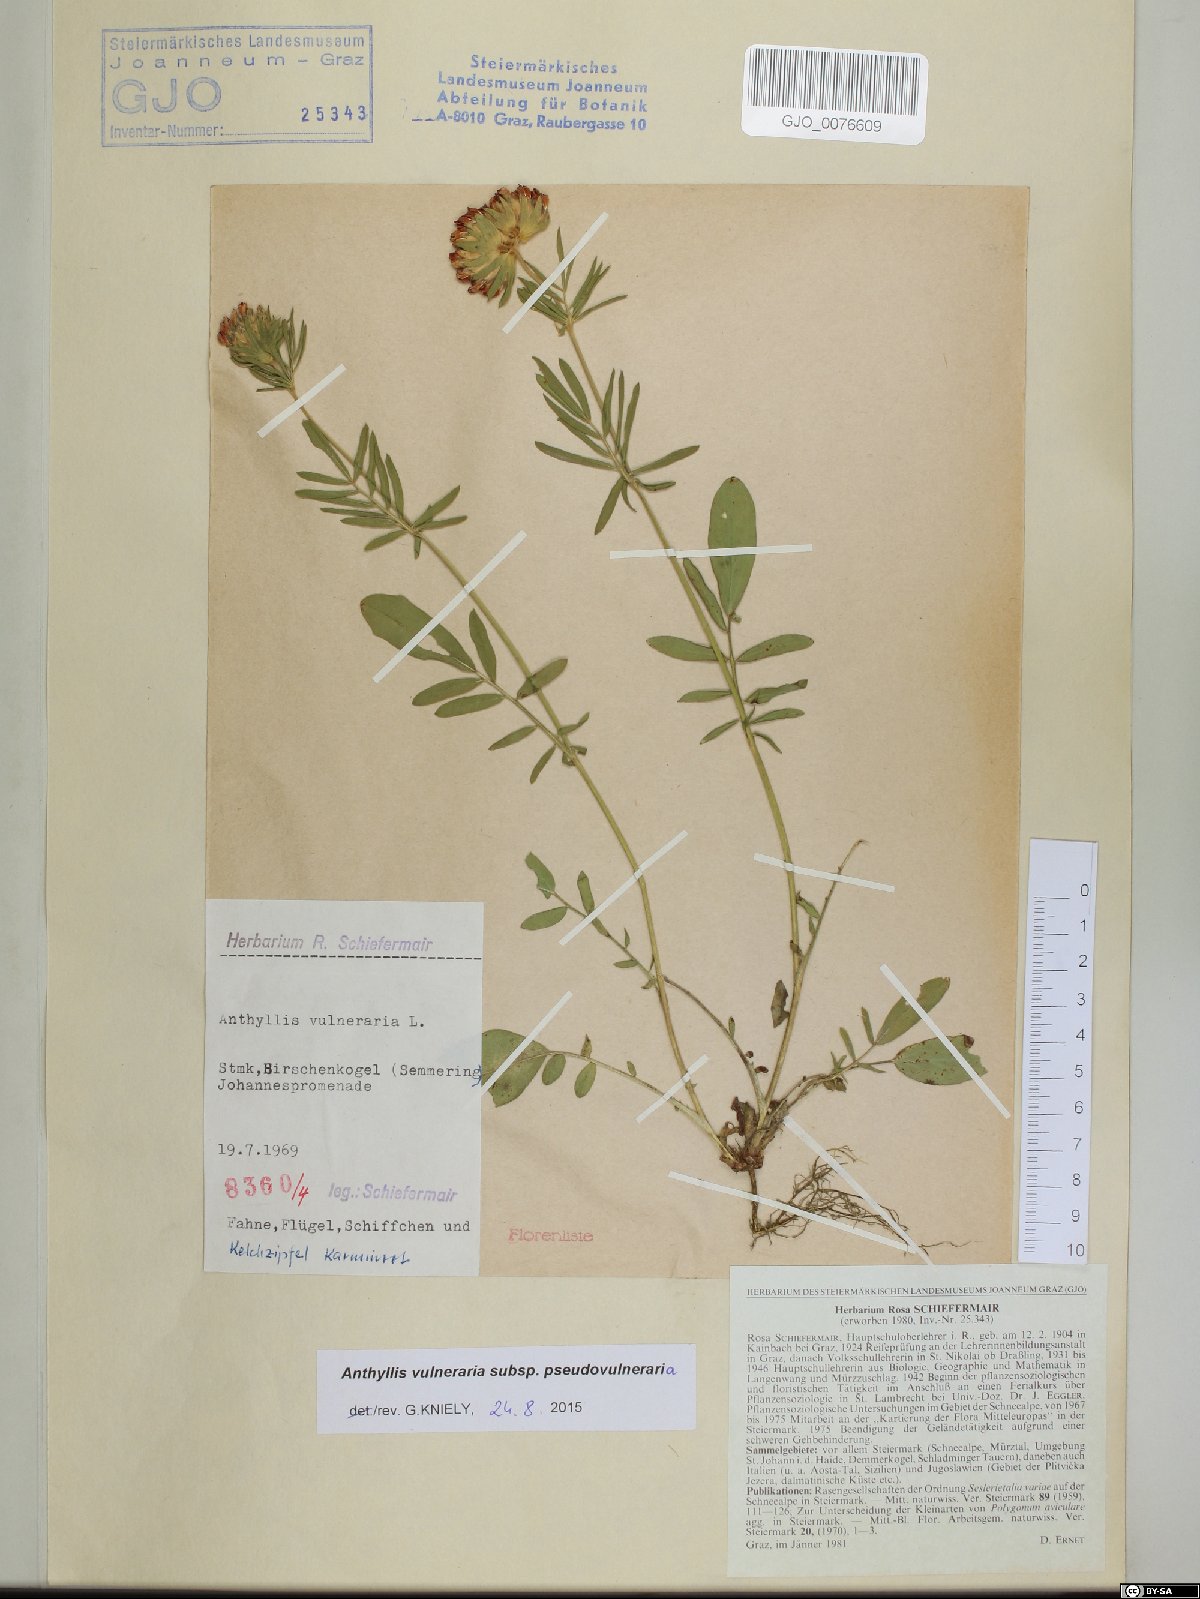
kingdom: Plantae
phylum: Tracheophyta
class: Magnoliopsida
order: Fabales
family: Fabaceae
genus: Anthyllis
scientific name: Anthyllis vulneraria
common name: Kidney vetch
